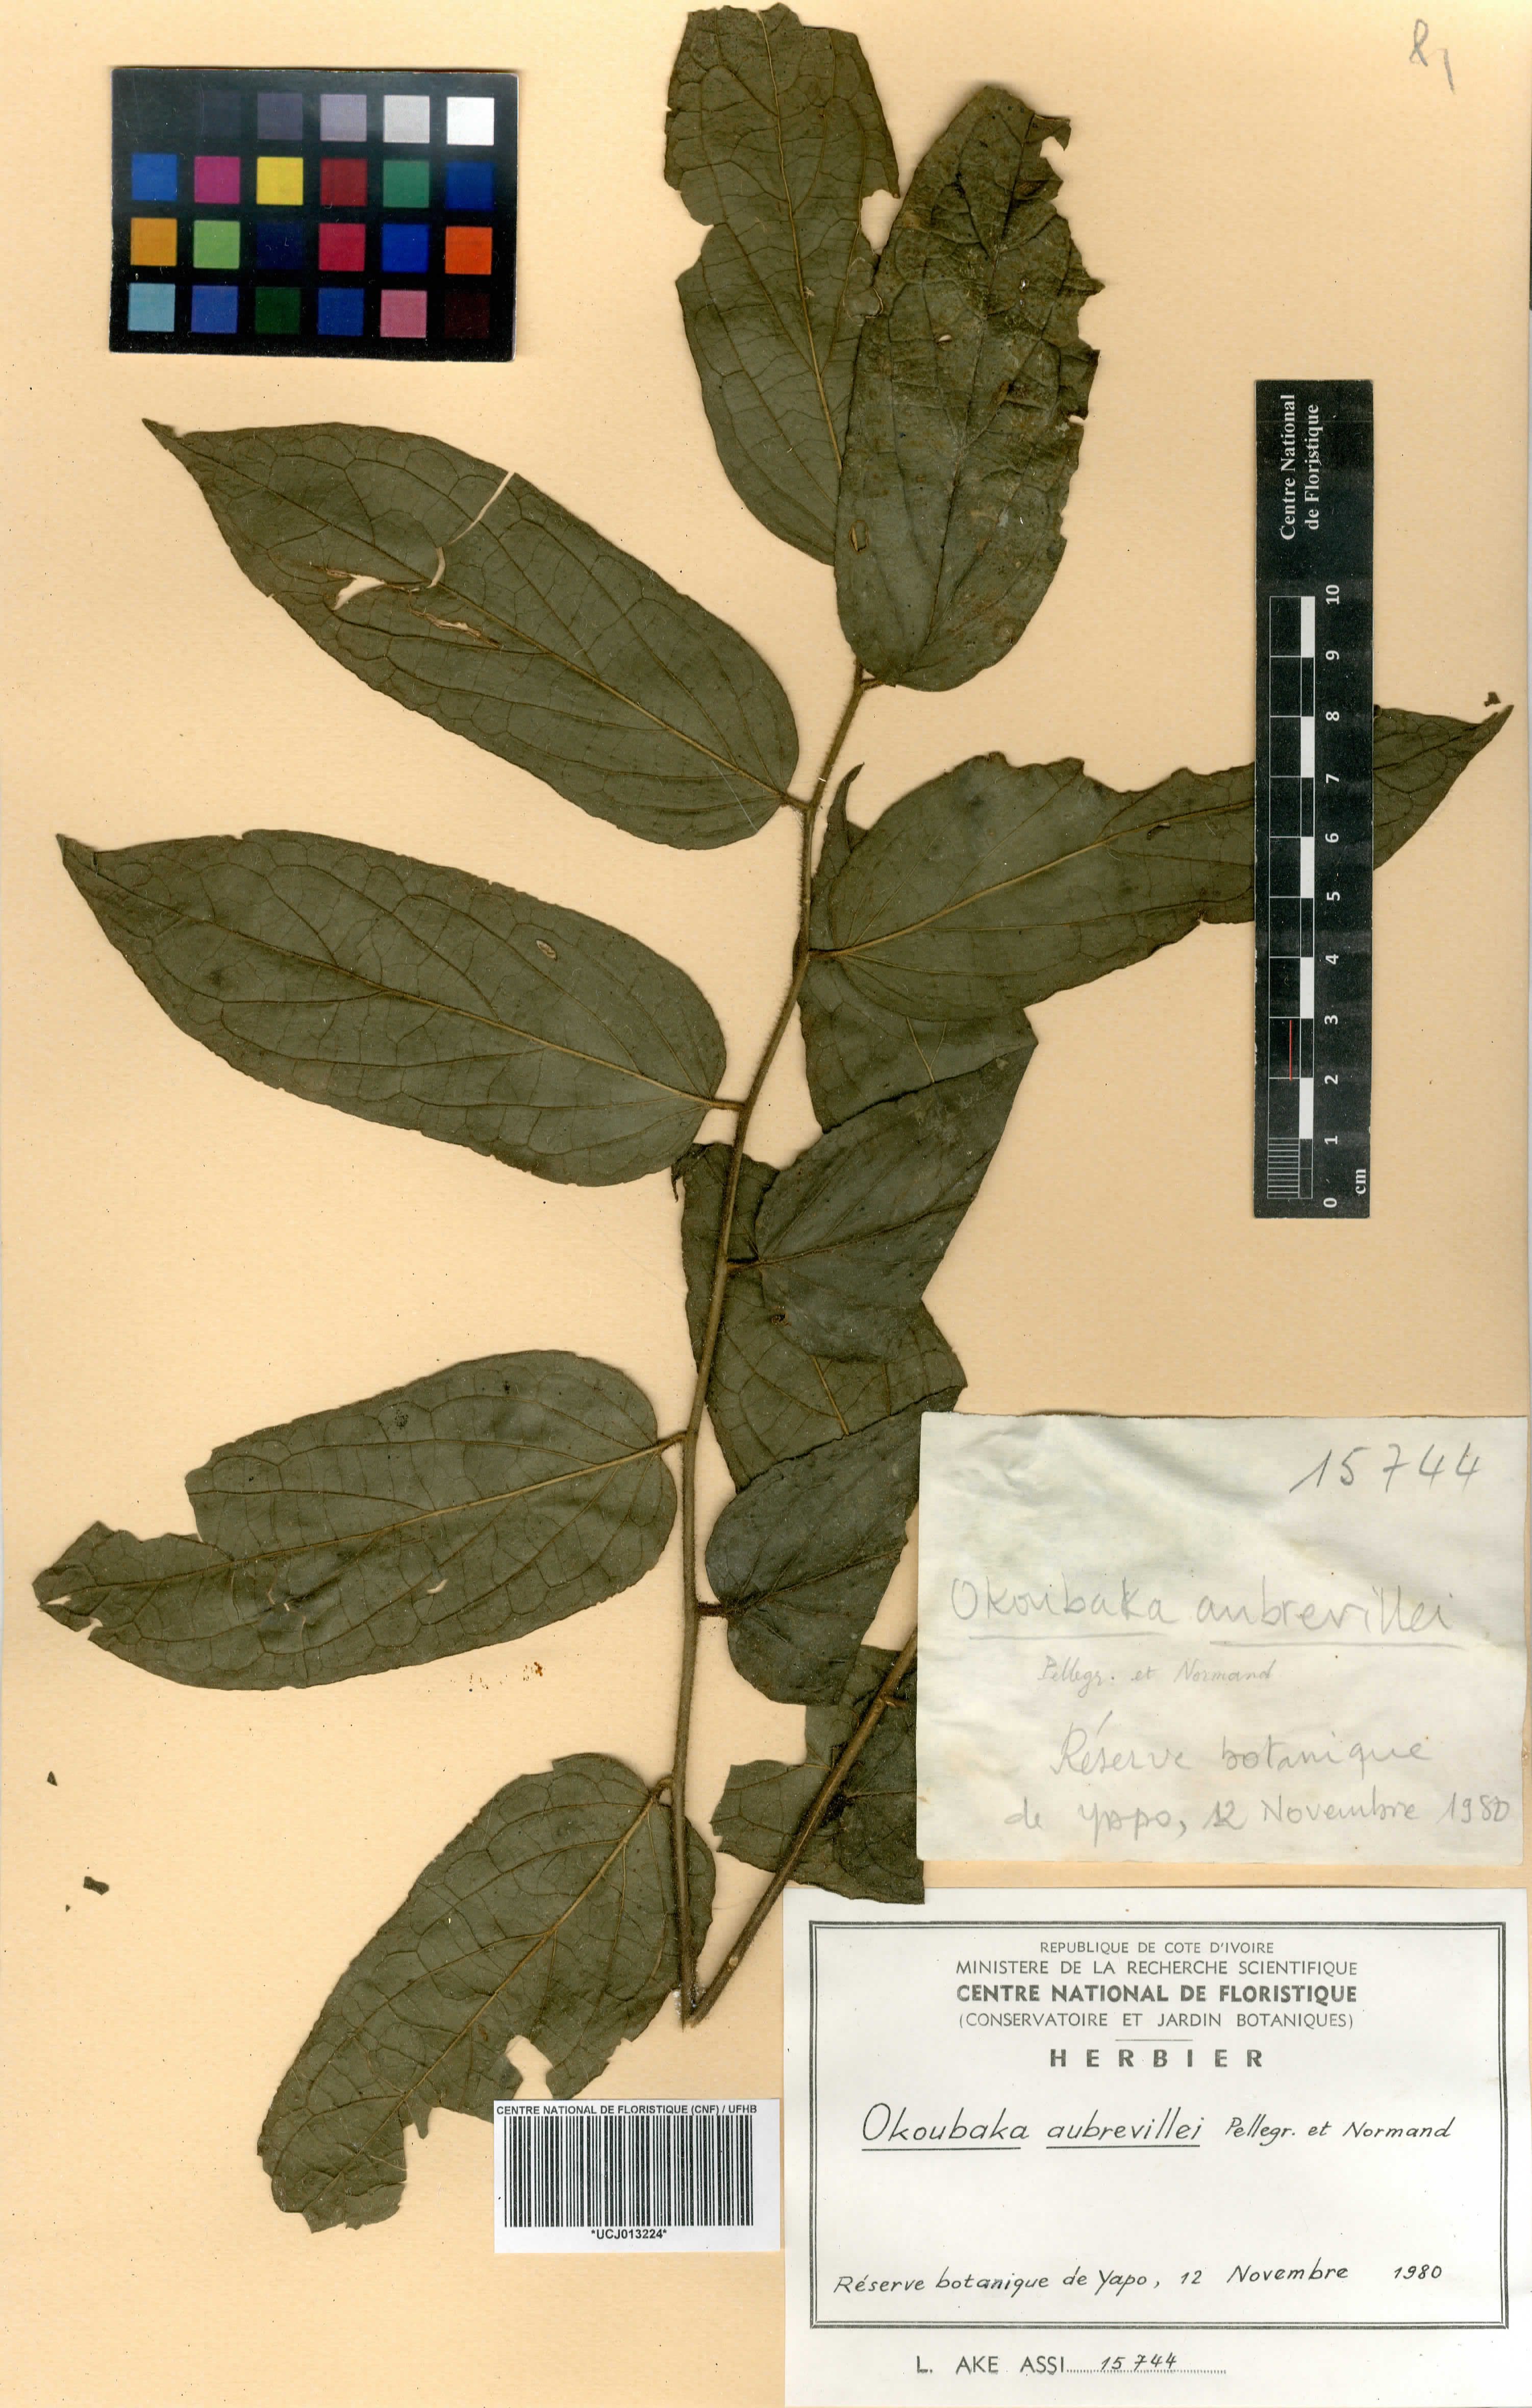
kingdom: Plantae
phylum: Tracheophyta
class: Magnoliopsida
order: Santalales
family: Cervantesiaceae
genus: Okoubaka
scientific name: Okoubaka aubrevillei
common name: Death tree
